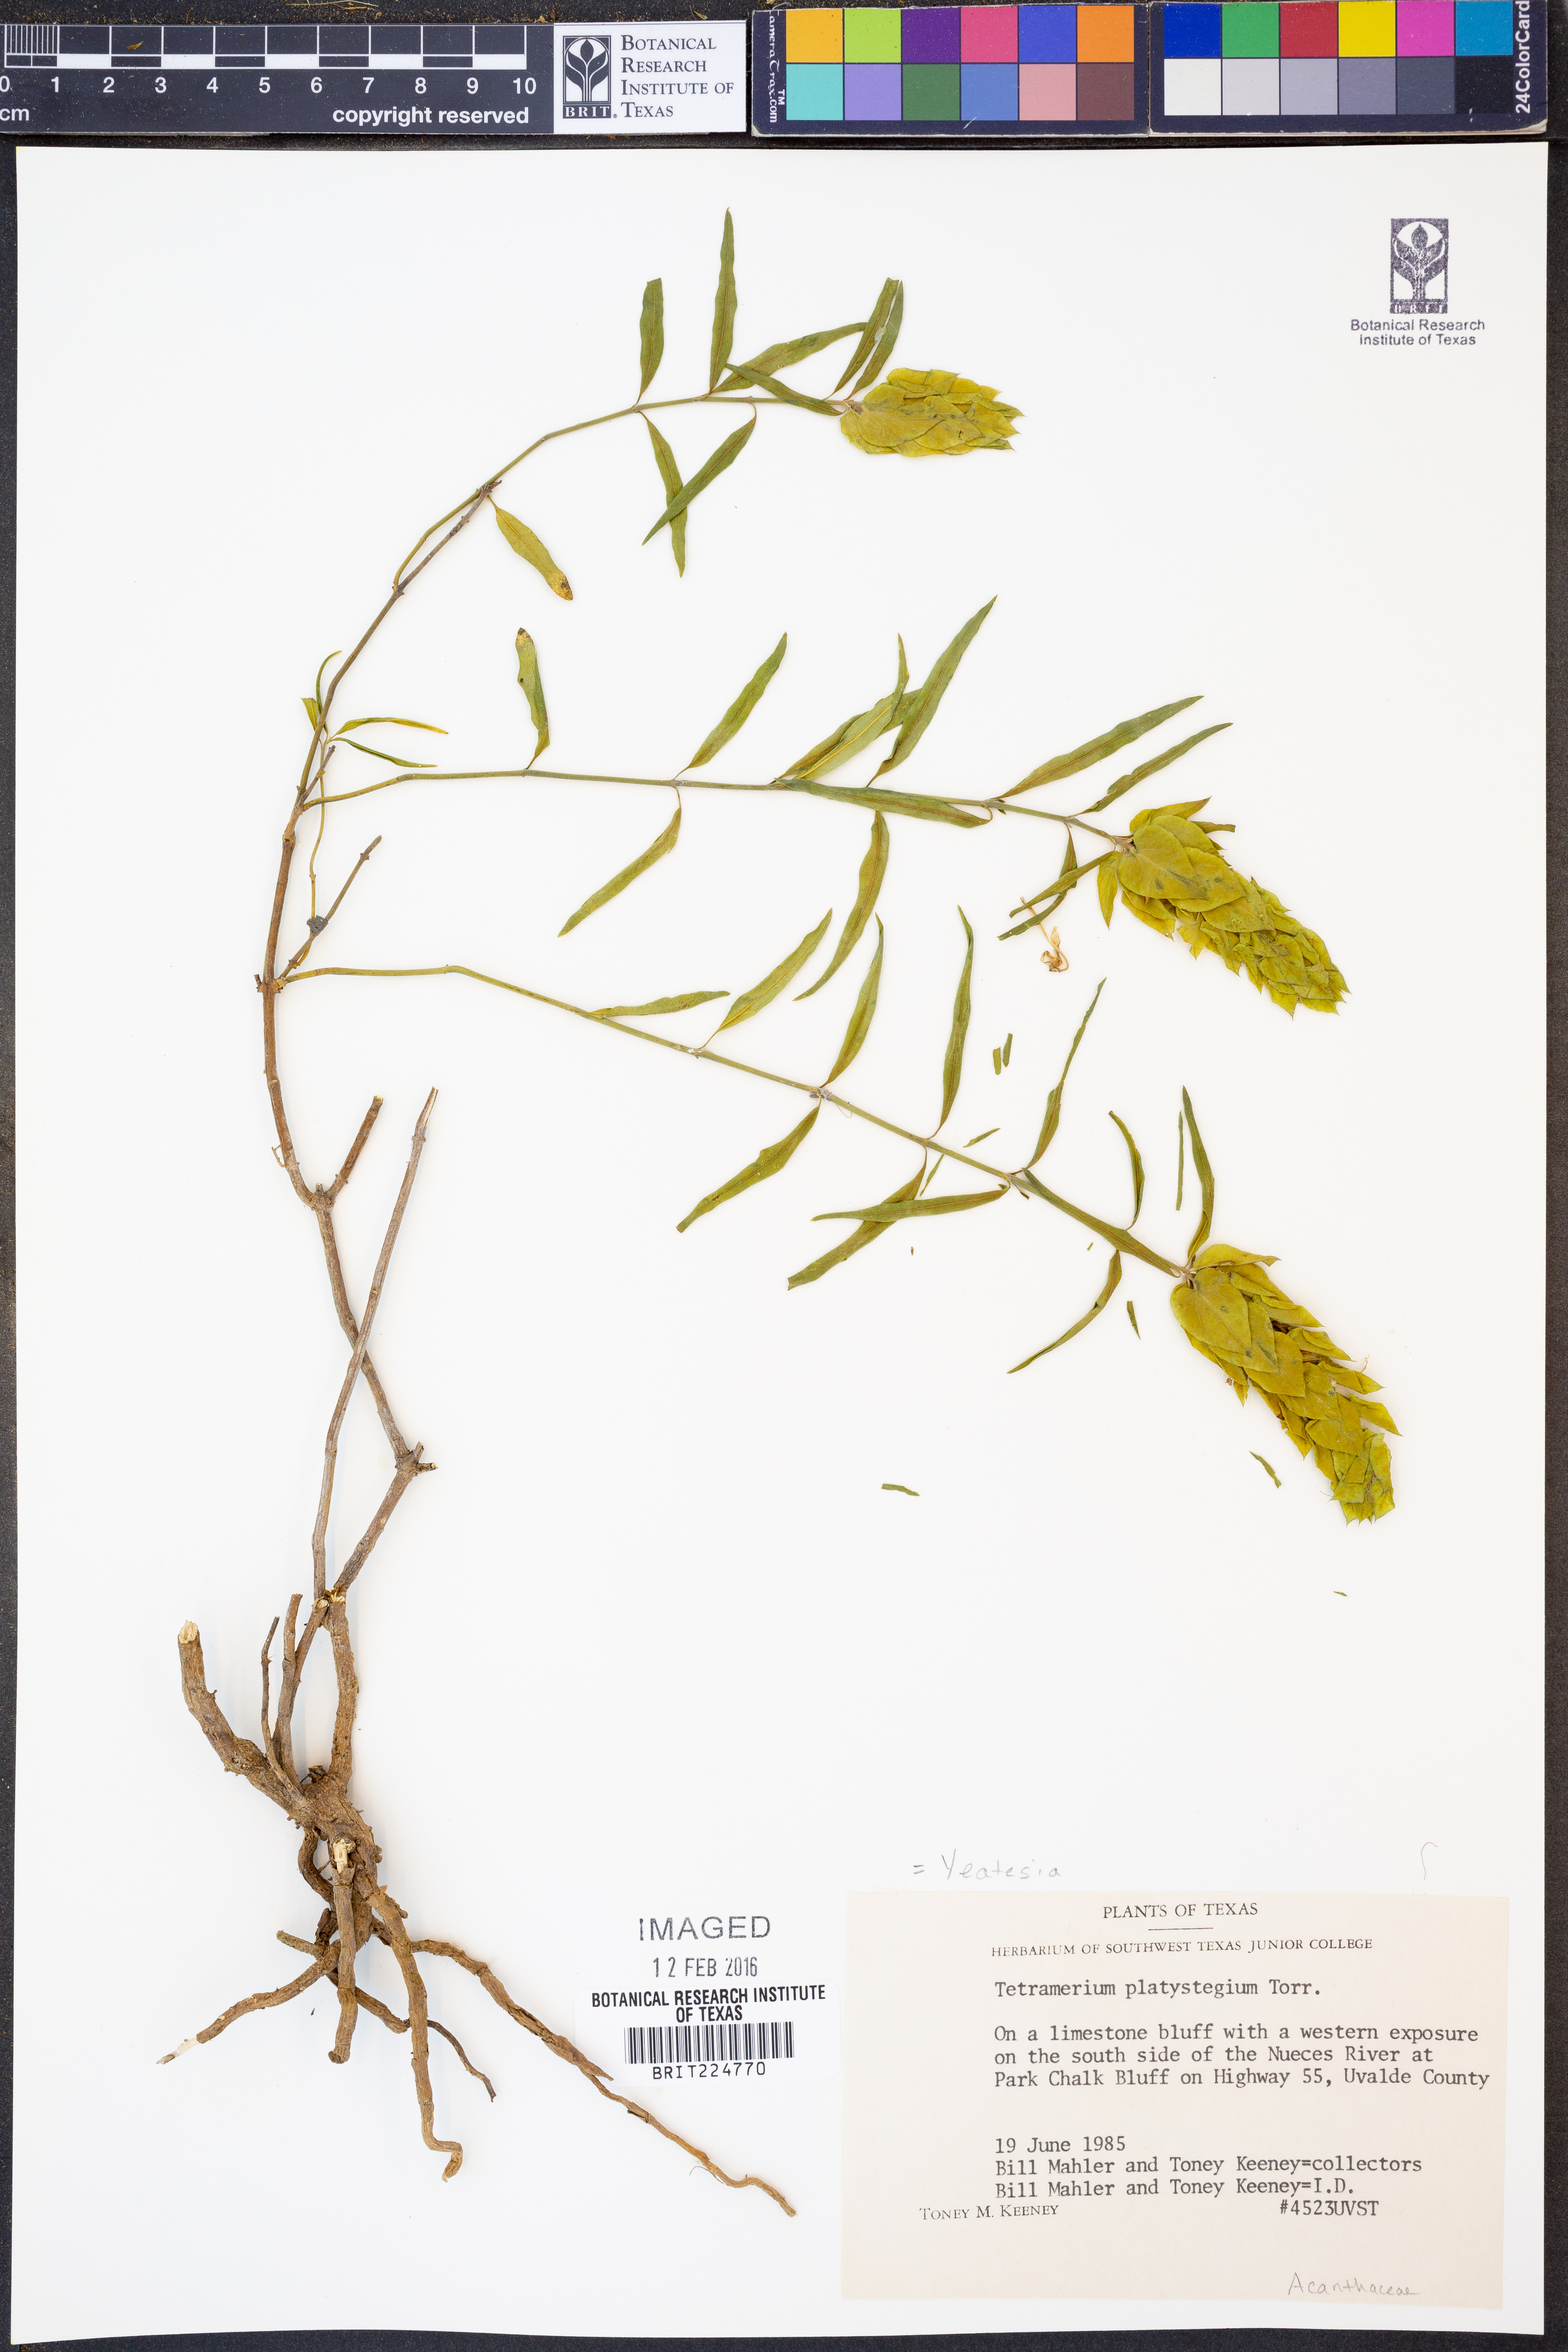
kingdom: Plantae
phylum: Tracheophyta
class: Magnoliopsida
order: Lamiales
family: Acanthaceae
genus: Yeatesia
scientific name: Yeatesia platystegia
